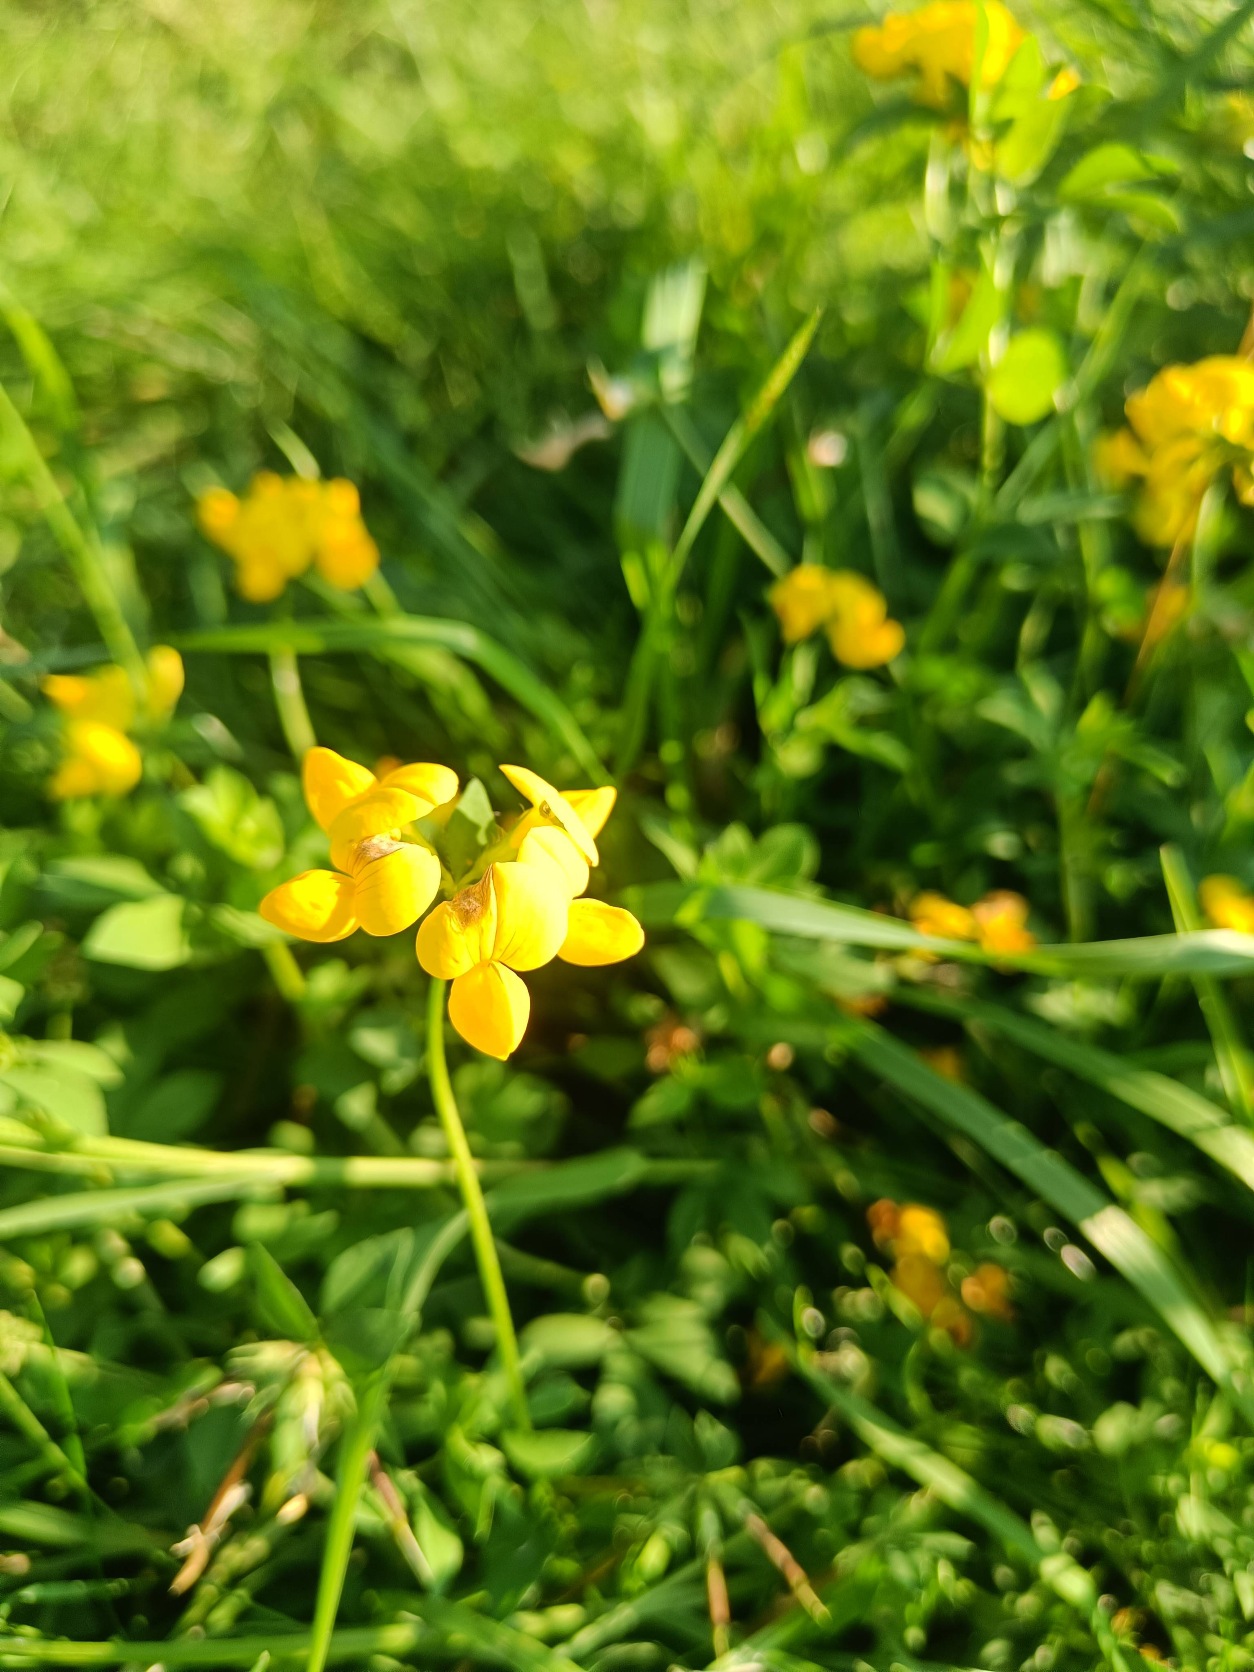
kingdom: Plantae
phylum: Tracheophyta
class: Magnoliopsida
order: Fabales
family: Fabaceae
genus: Lotus
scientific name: Lotus corniculatus
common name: Almindelig kællingetand
